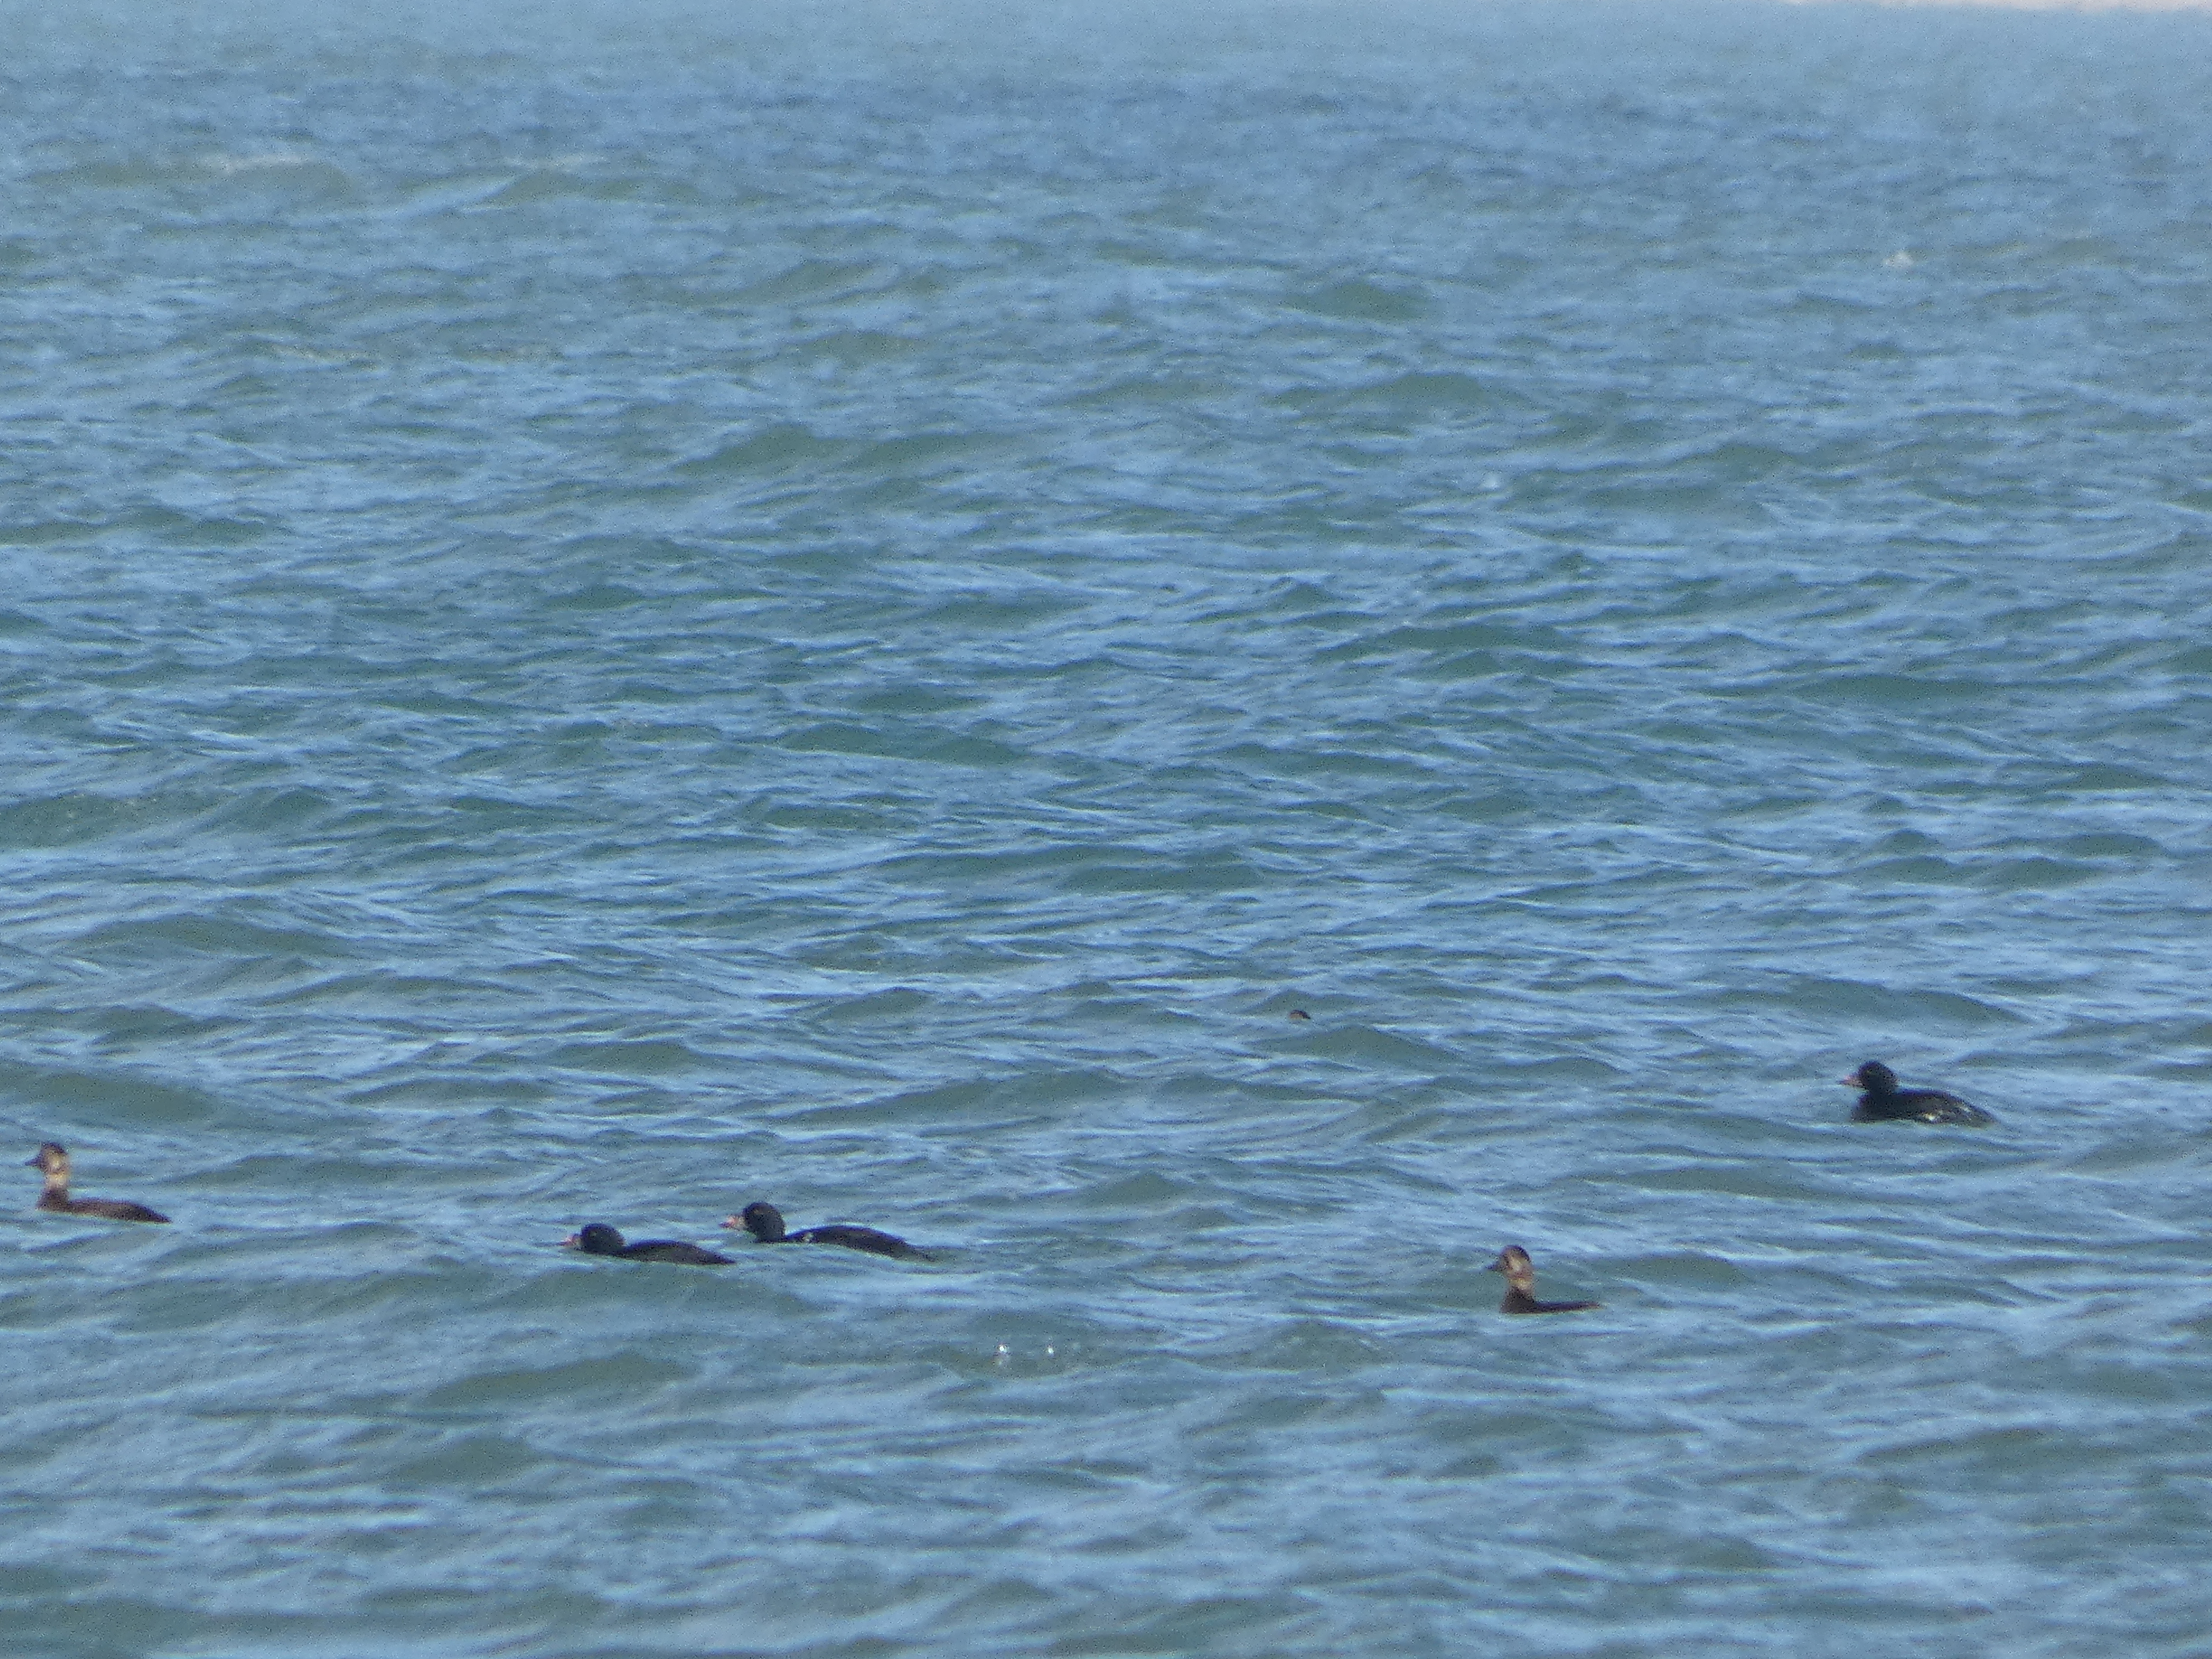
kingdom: Animalia
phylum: Chordata
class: Aves
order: Anseriformes
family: Anatidae
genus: Melanitta
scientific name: Melanitta nigra
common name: Sortand
